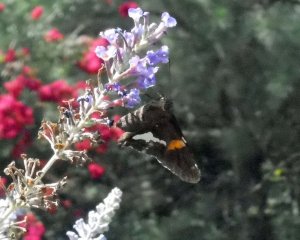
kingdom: Animalia
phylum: Arthropoda
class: Insecta
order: Lepidoptera
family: Hesperiidae
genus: Epargyreus
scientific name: Epargyreus clarus
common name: Silver-spotted Skipper
